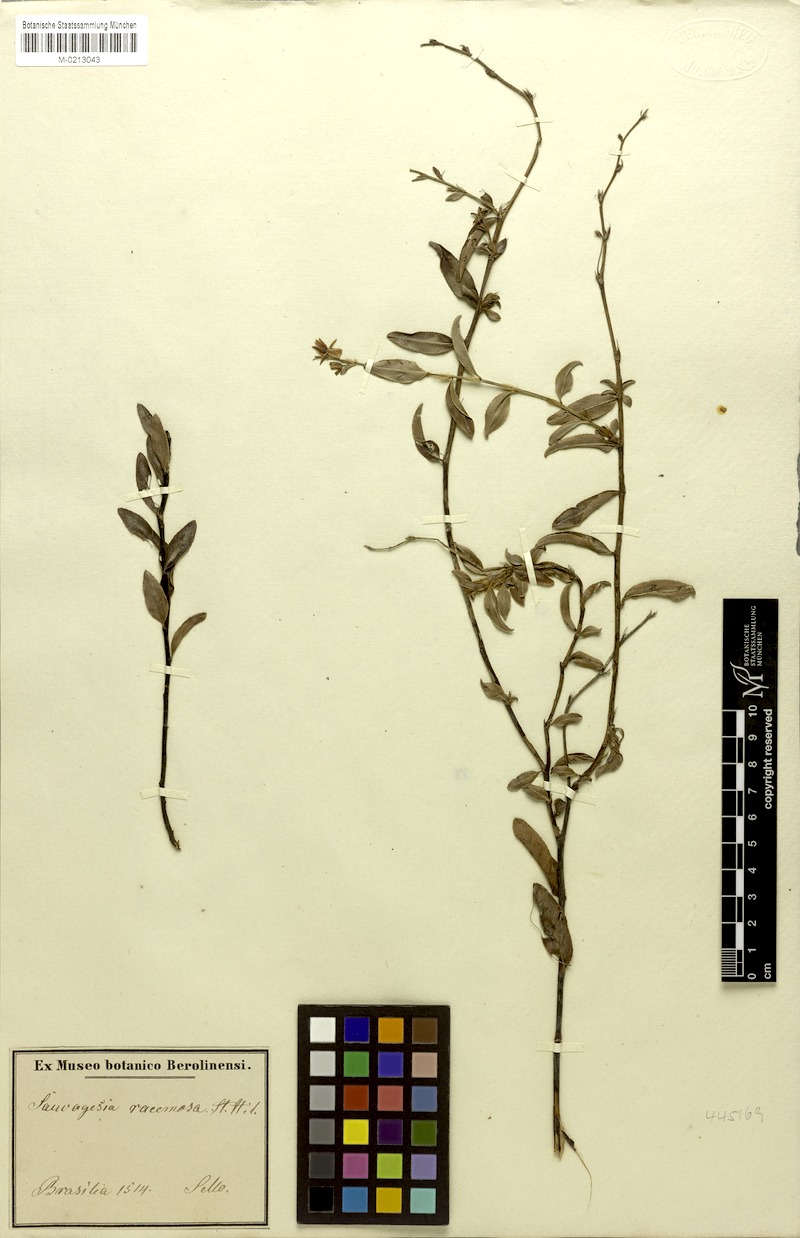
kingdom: Plantae
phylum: Tracheophyta
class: Magnoliopsida
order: Malpighiales
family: Ochnaceae
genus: Sauvagesia
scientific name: Sauvagesia racemosa
